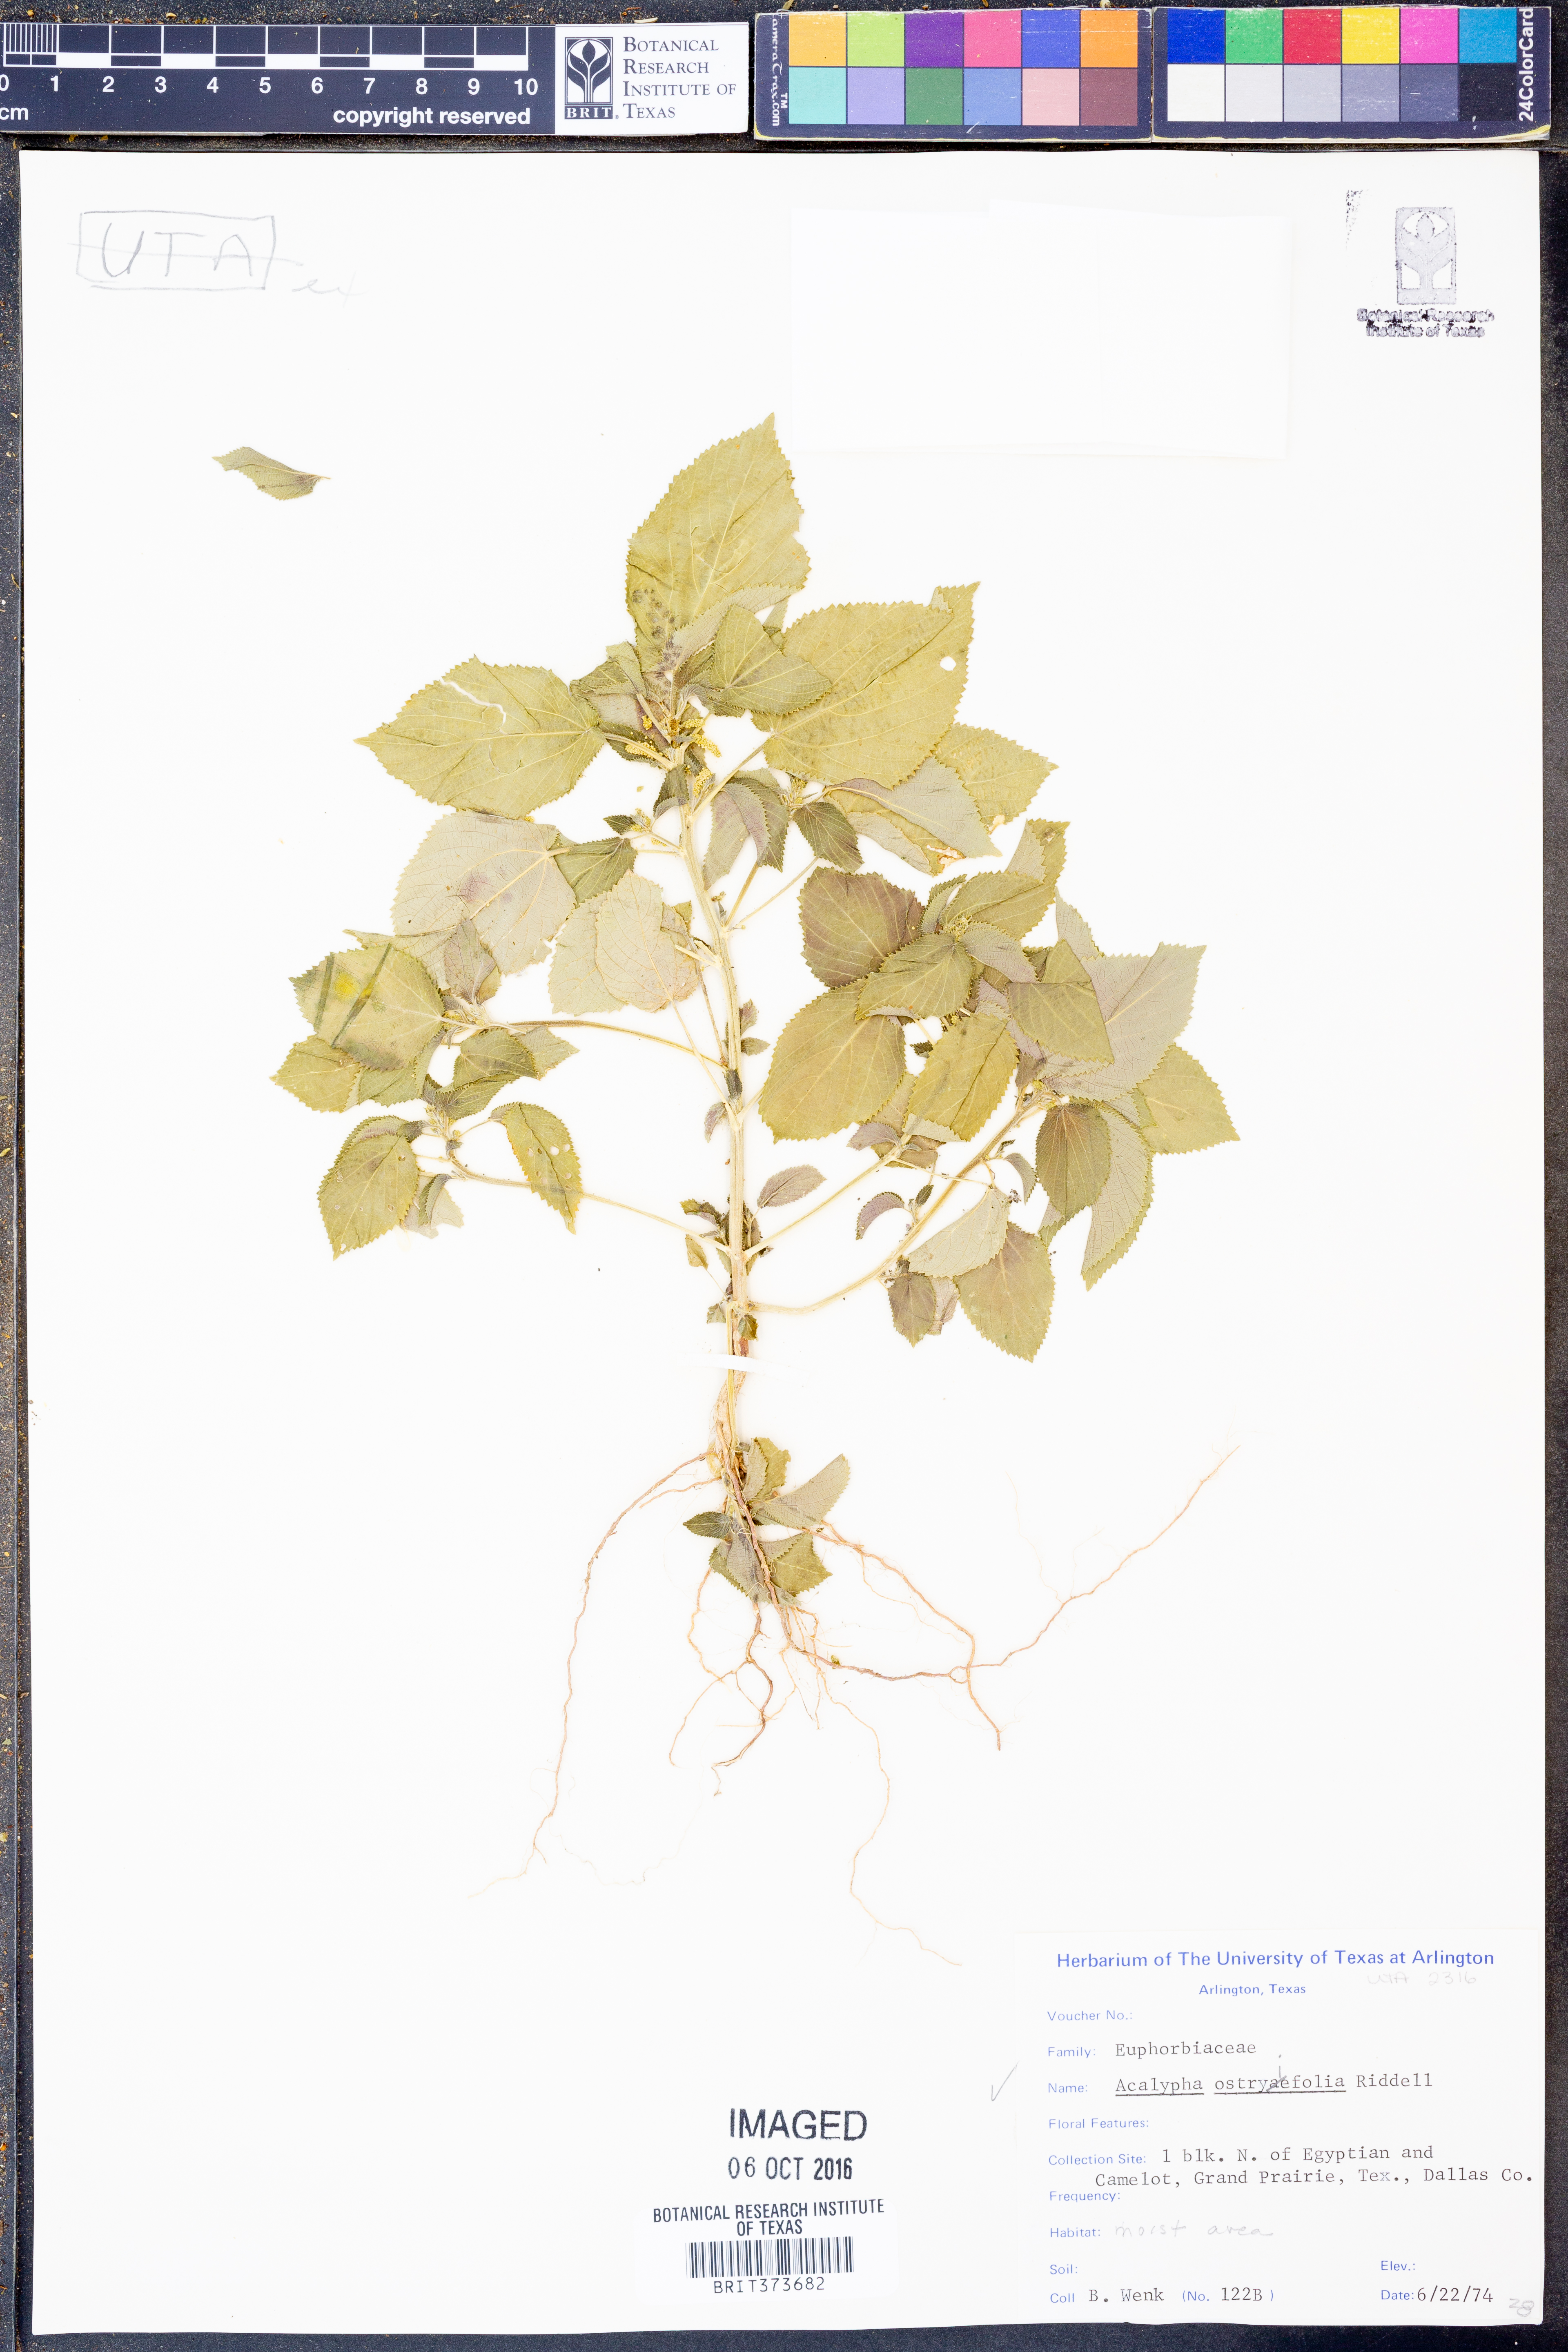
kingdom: Plantae
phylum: Tracheophyta
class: Magnoliopsida
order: Malpighiales
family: Euphorbiaceae
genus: Acalypha
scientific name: Acalypha persimilis
